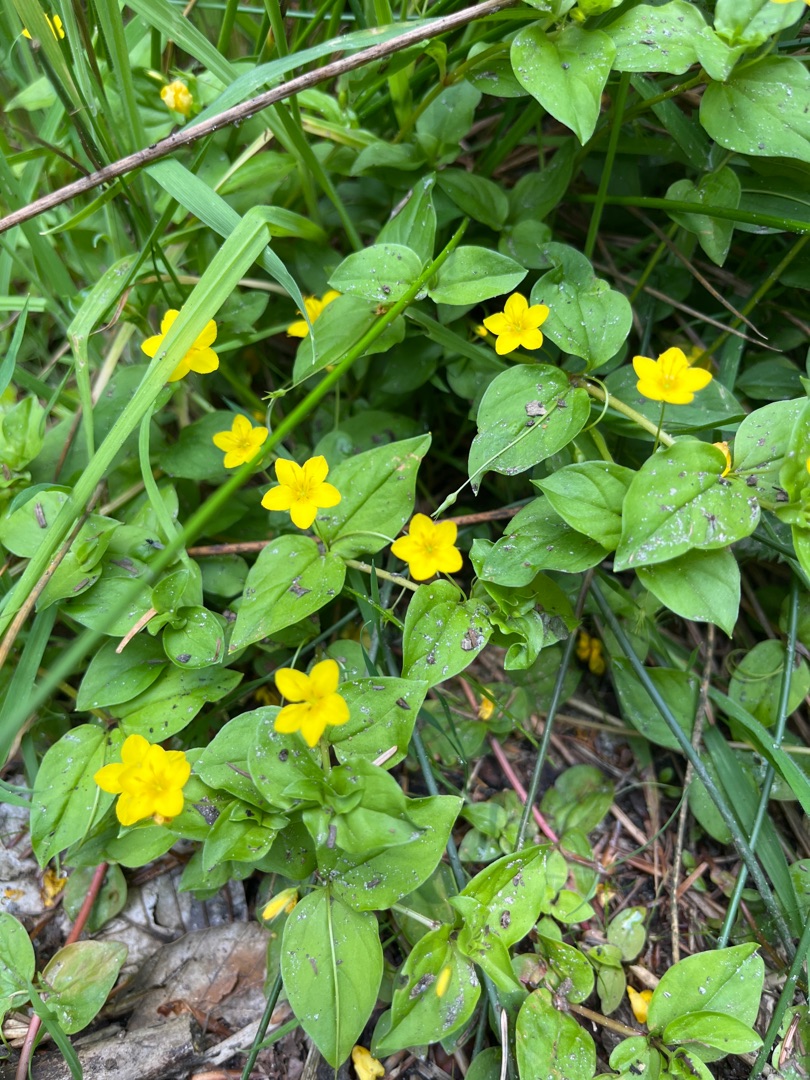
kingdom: Plantae
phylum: Tracheophyta
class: Magnoliopsida
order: Ericales
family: Primulaceae
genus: Lysimachia
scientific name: Lysimachia nemorum
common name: Lund-fredløs
